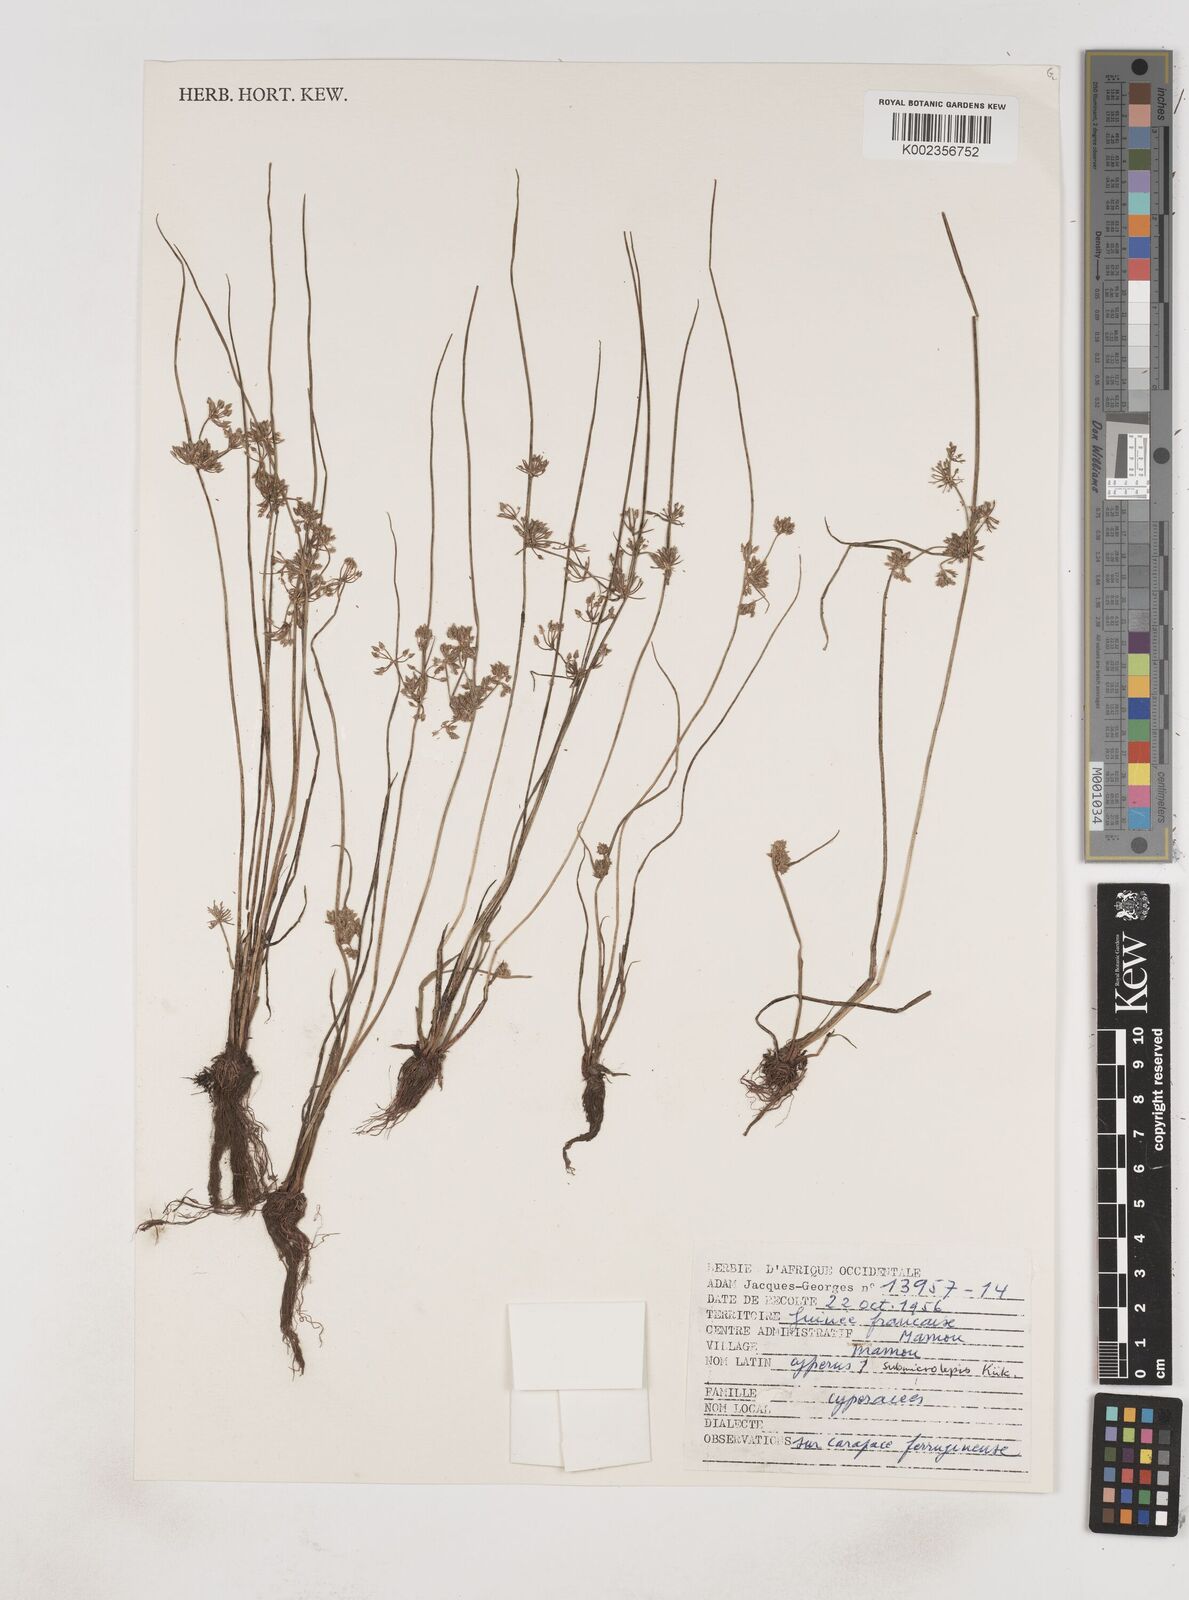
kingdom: Plantae
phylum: Tracheophyta
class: Liliopsida
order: Poales
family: Cyperaceae
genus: Cyperus
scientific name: Cyperus submicrolepis
